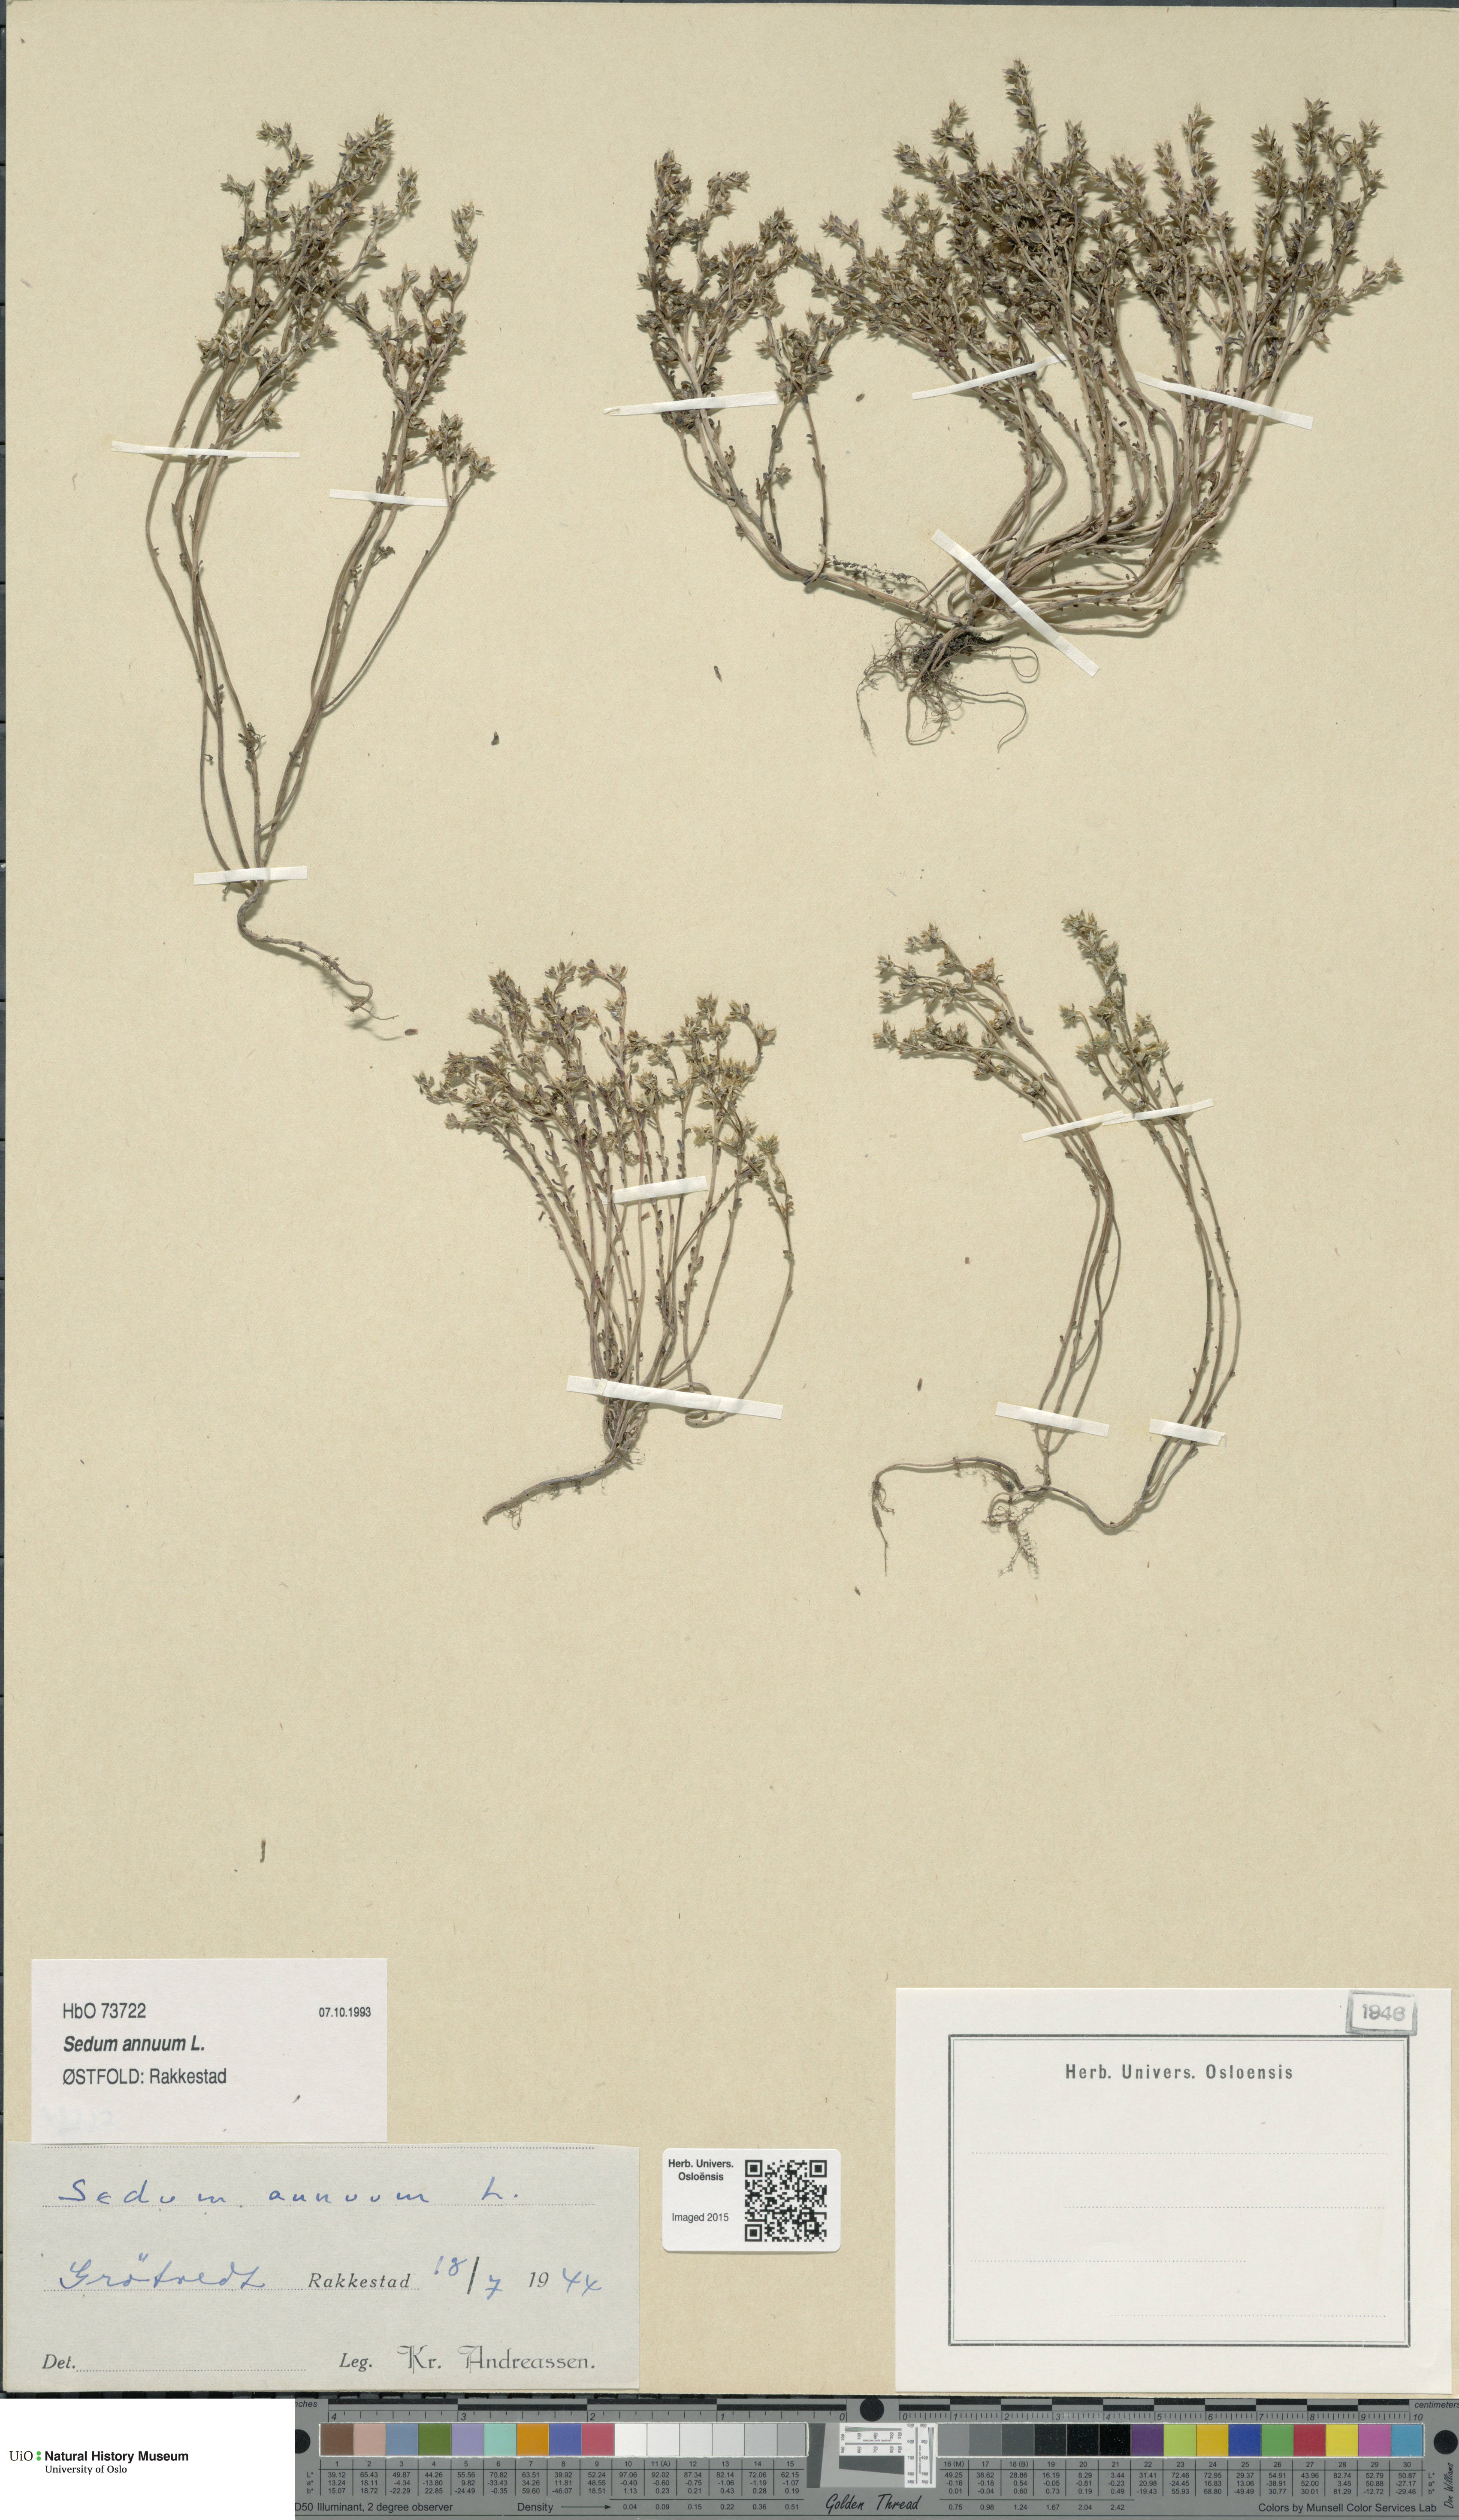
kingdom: Plantae
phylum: Tracheophyta
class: Magnoliopsida
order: Saxifragales
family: Crassulaceae
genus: Sedum
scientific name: Sedum annuum
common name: Annual stonecrop
